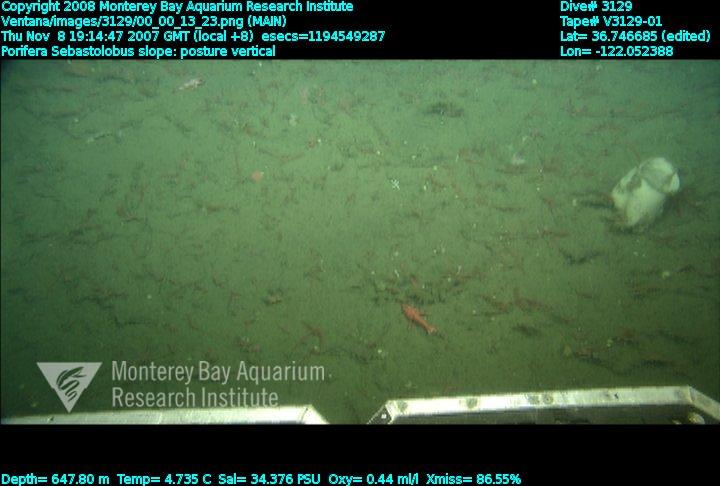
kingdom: Animalia
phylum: Porifera
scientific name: Porifera
